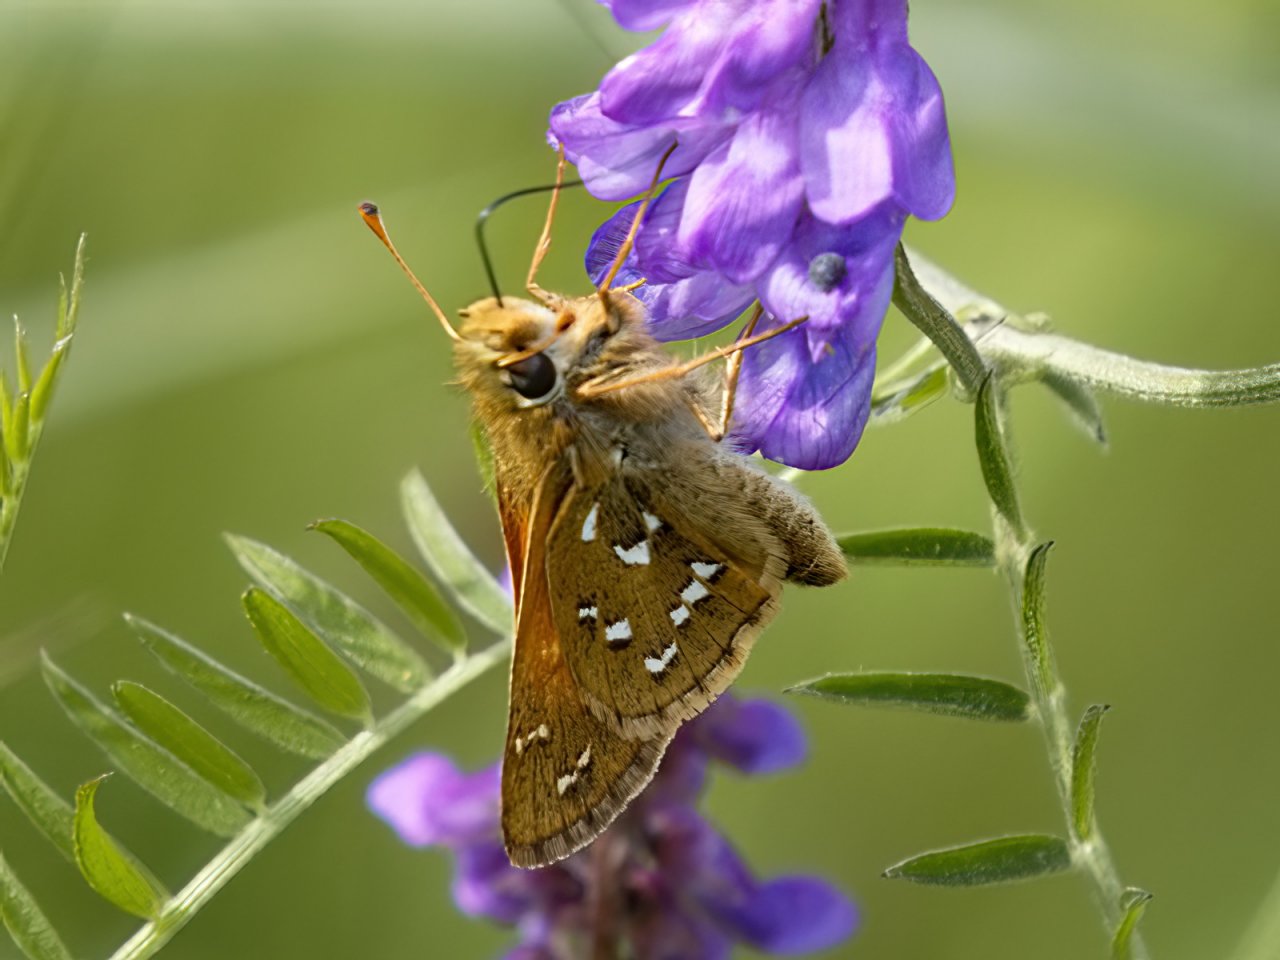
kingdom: Animalia
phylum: Arthropoda
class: Insecta
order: Lepidoptera
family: Hesperiidae
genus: Hesperia
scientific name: Hesperia comma
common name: Common Branded Skipper
